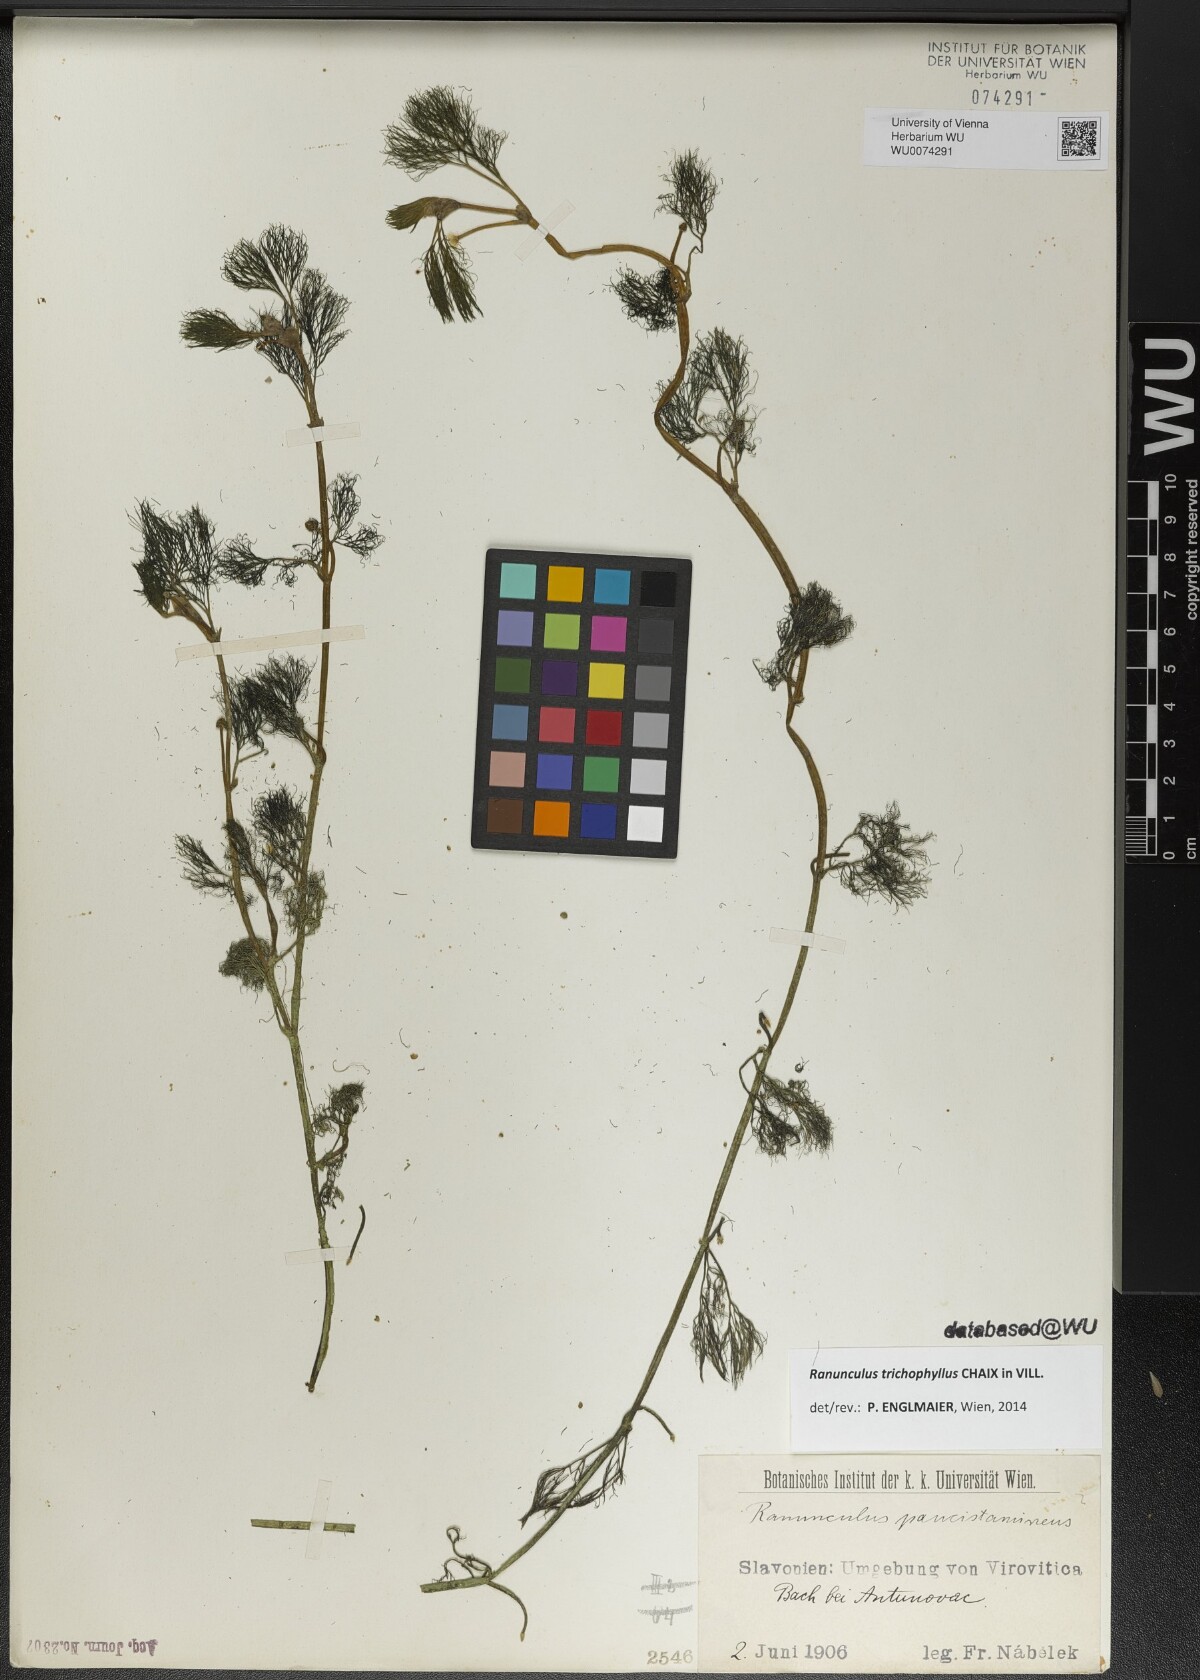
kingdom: Plantae
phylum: Tracheophyta
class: Magnoliopsida
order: Ranunculales
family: Ranunculaceae
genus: Ranunculus
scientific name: Ranunculus trichophyllus
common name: Thread-leaved water-crowfoot
